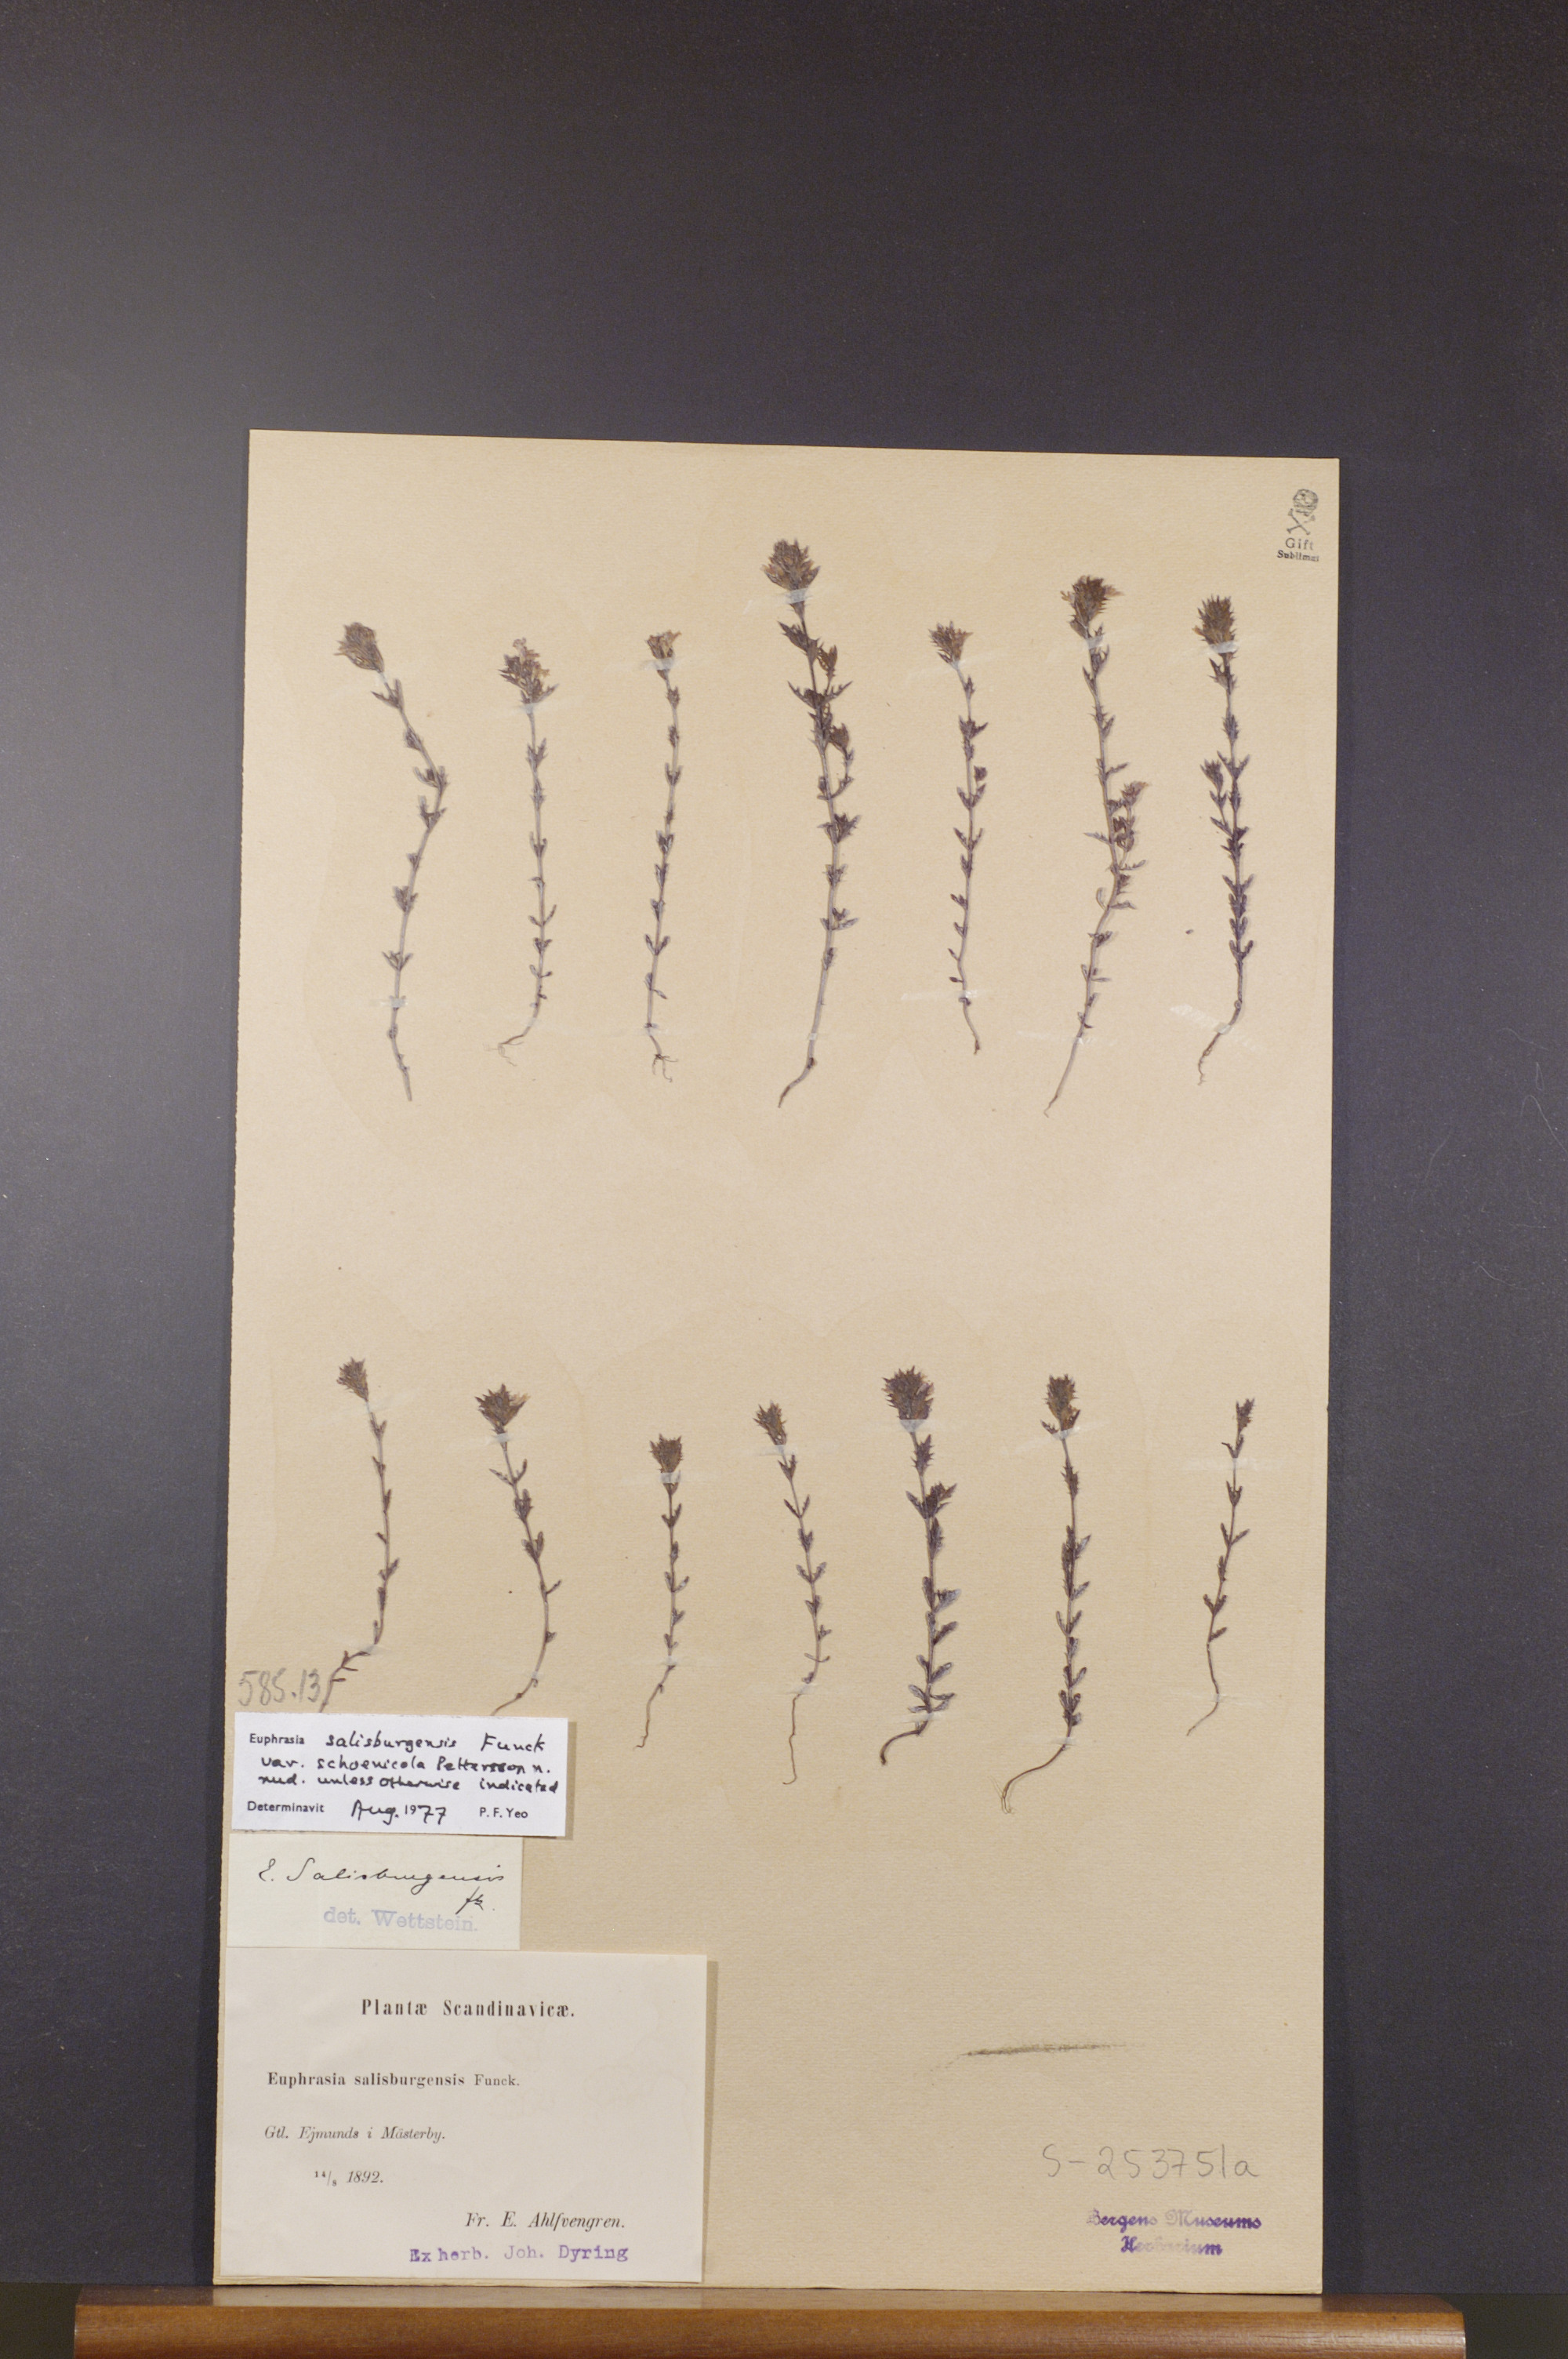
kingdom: Plantae
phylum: Tracheophyta
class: Magnoliopsida
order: Lamiales
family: Orobanchaceae
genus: Euphrasia
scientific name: Euphrasia salisburgensis
